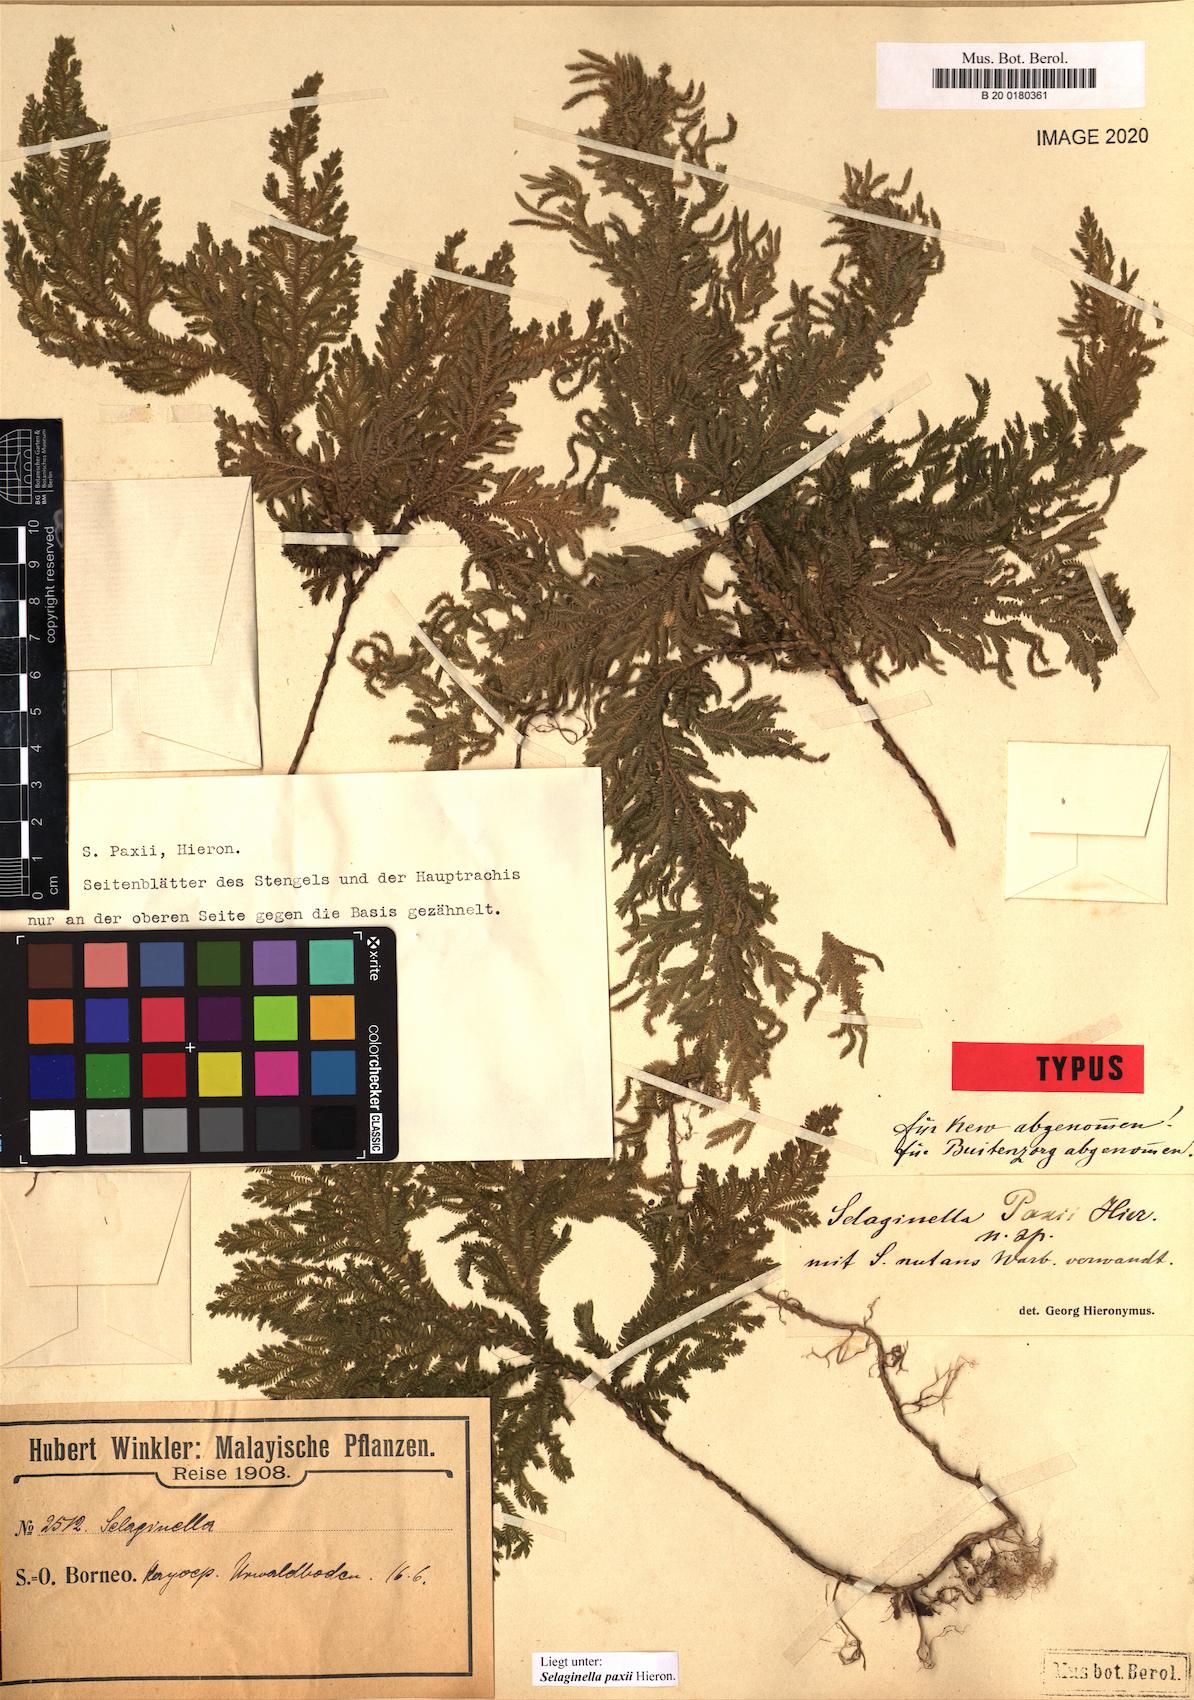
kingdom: Plantae
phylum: Tracheophyta
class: Lycopodiopsida
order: Selaginellales
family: Selaginellaceae
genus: Selaginella
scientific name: Selaginella paxii
